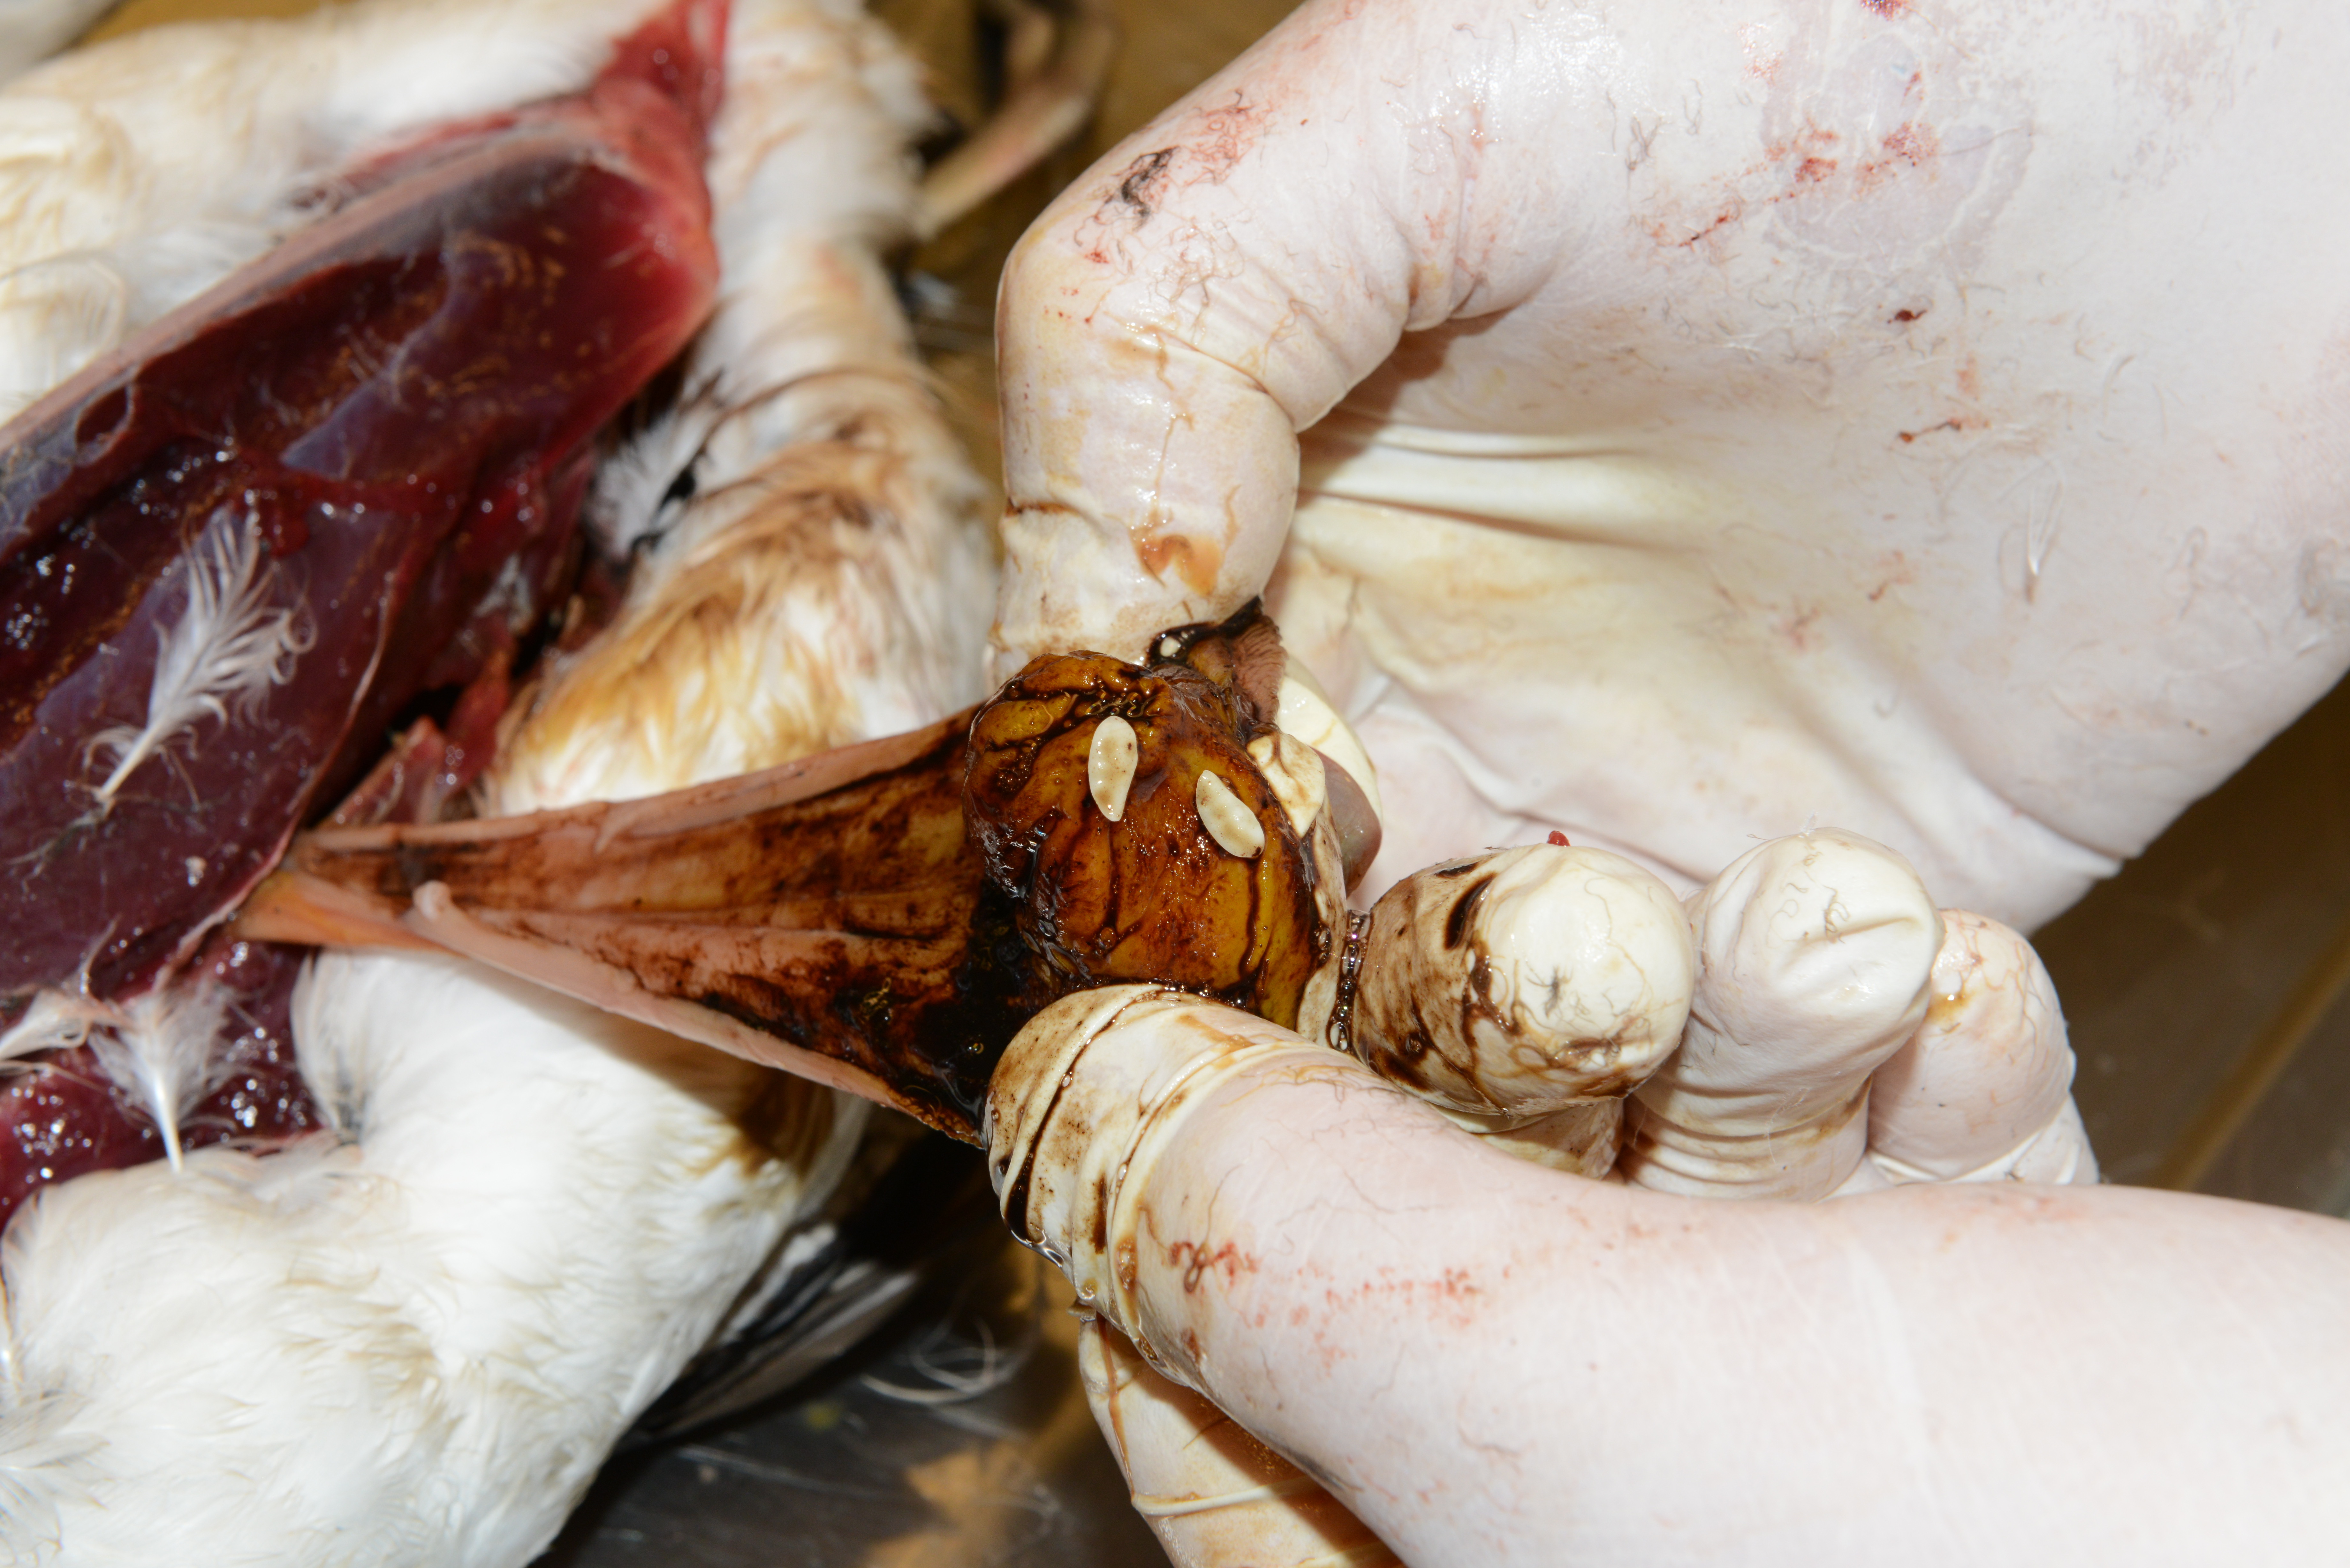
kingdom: Animalia
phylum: Chordata
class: Aves
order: Charadriiformes
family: Alcidae
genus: Uria
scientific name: Uria aalge
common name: Common murre
